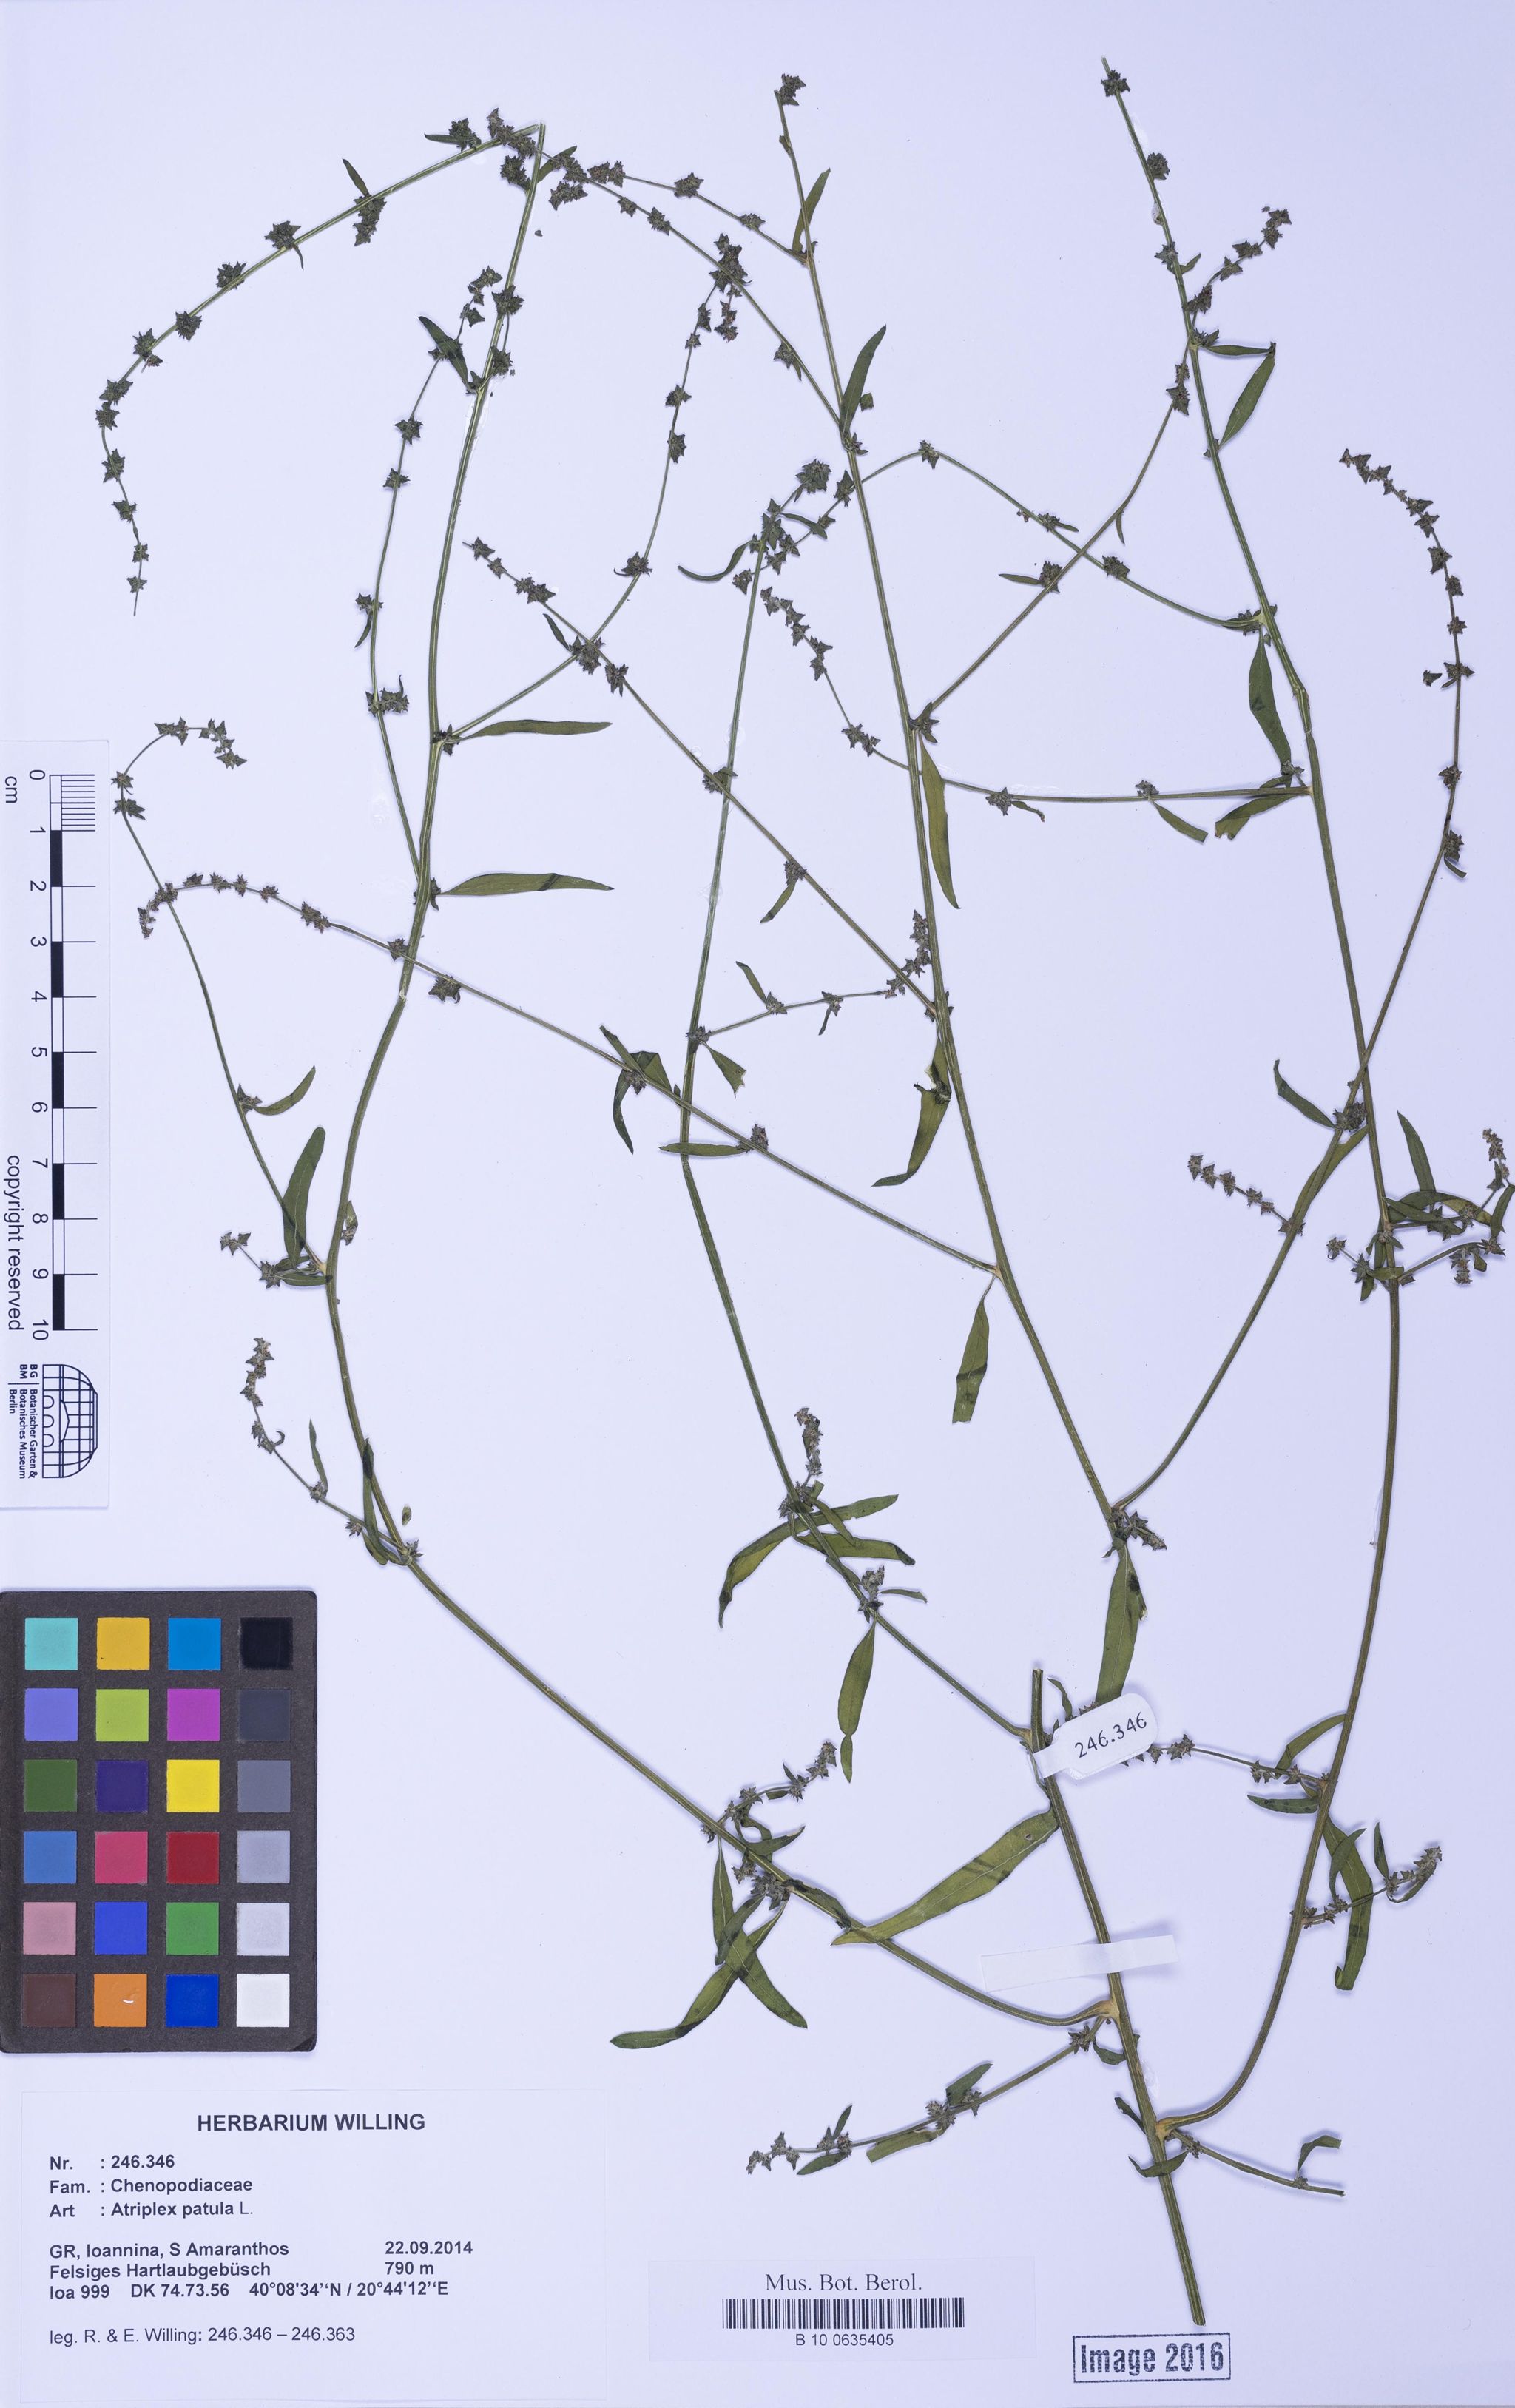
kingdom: Plantae
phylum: Tracheophyta
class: Magnoliopsida
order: Caryophyllales
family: Amaranthaceae
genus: Atriplex
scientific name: Atriplex patula
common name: Common orache
